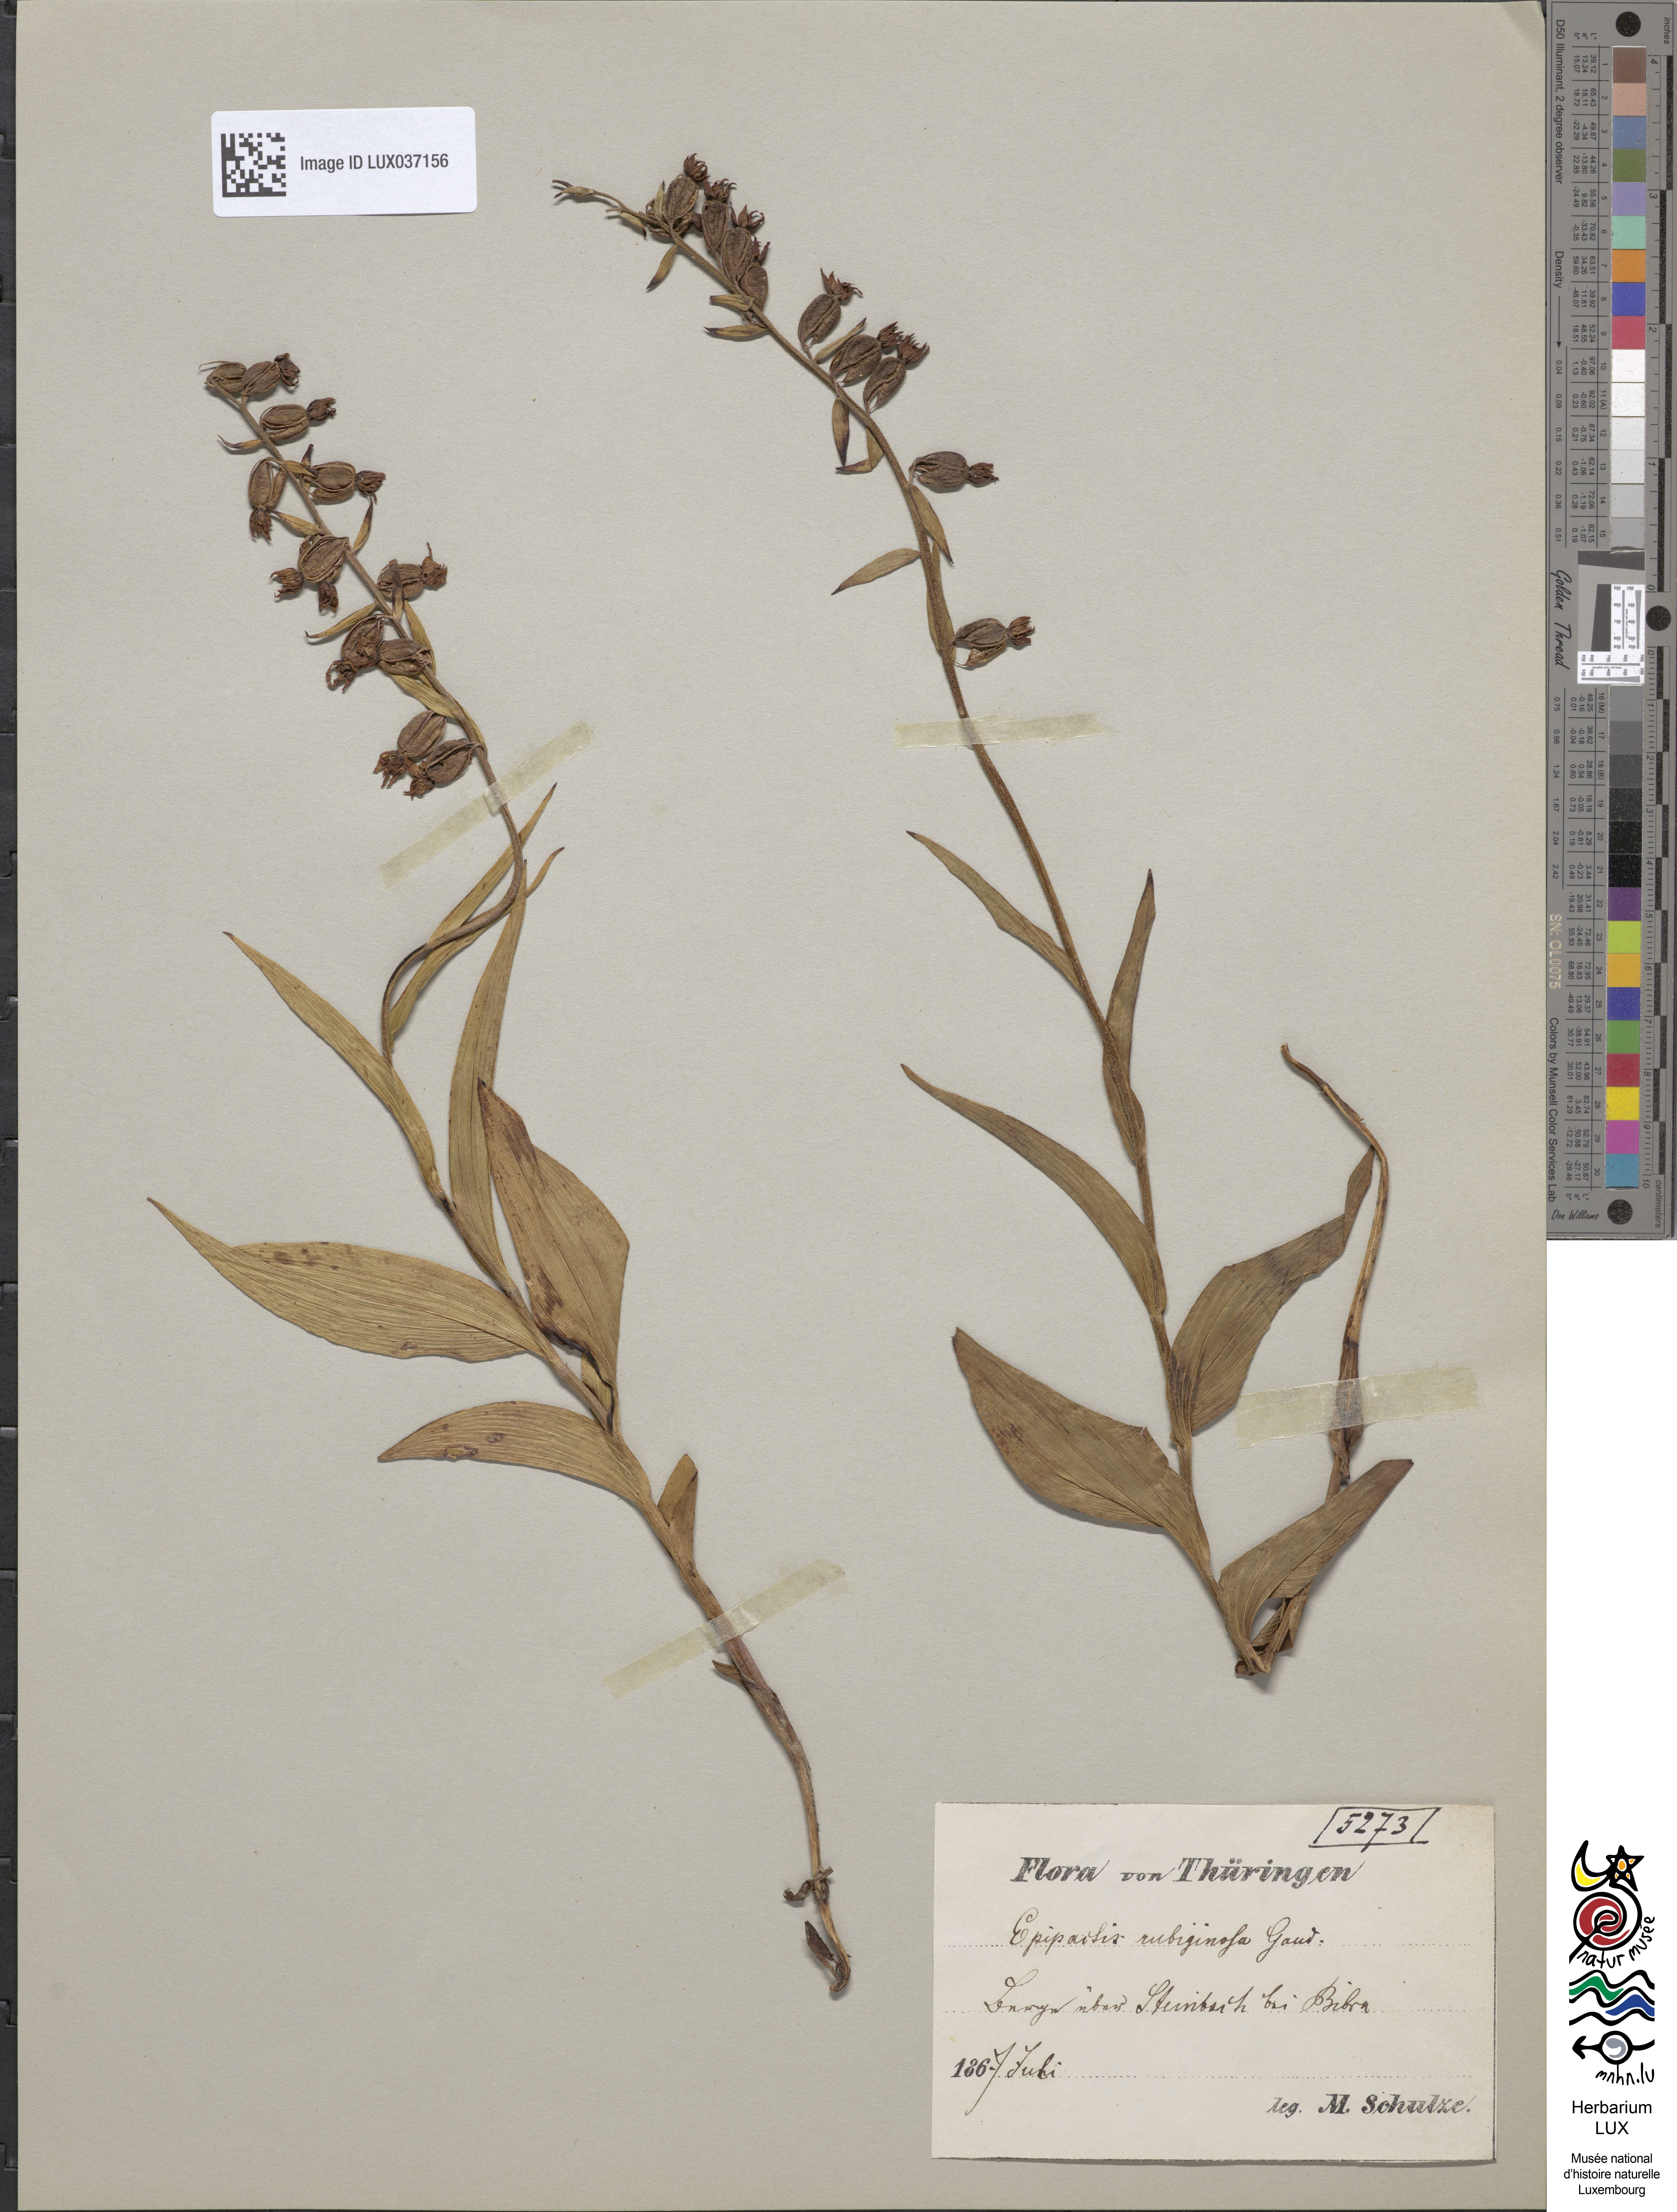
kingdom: Plantae
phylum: Tracheophyta
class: Liliopsida
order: Asparagales
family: Orchidaceae
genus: Epipactis
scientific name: Epipactis atrorubens
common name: Dark-red helleborine
